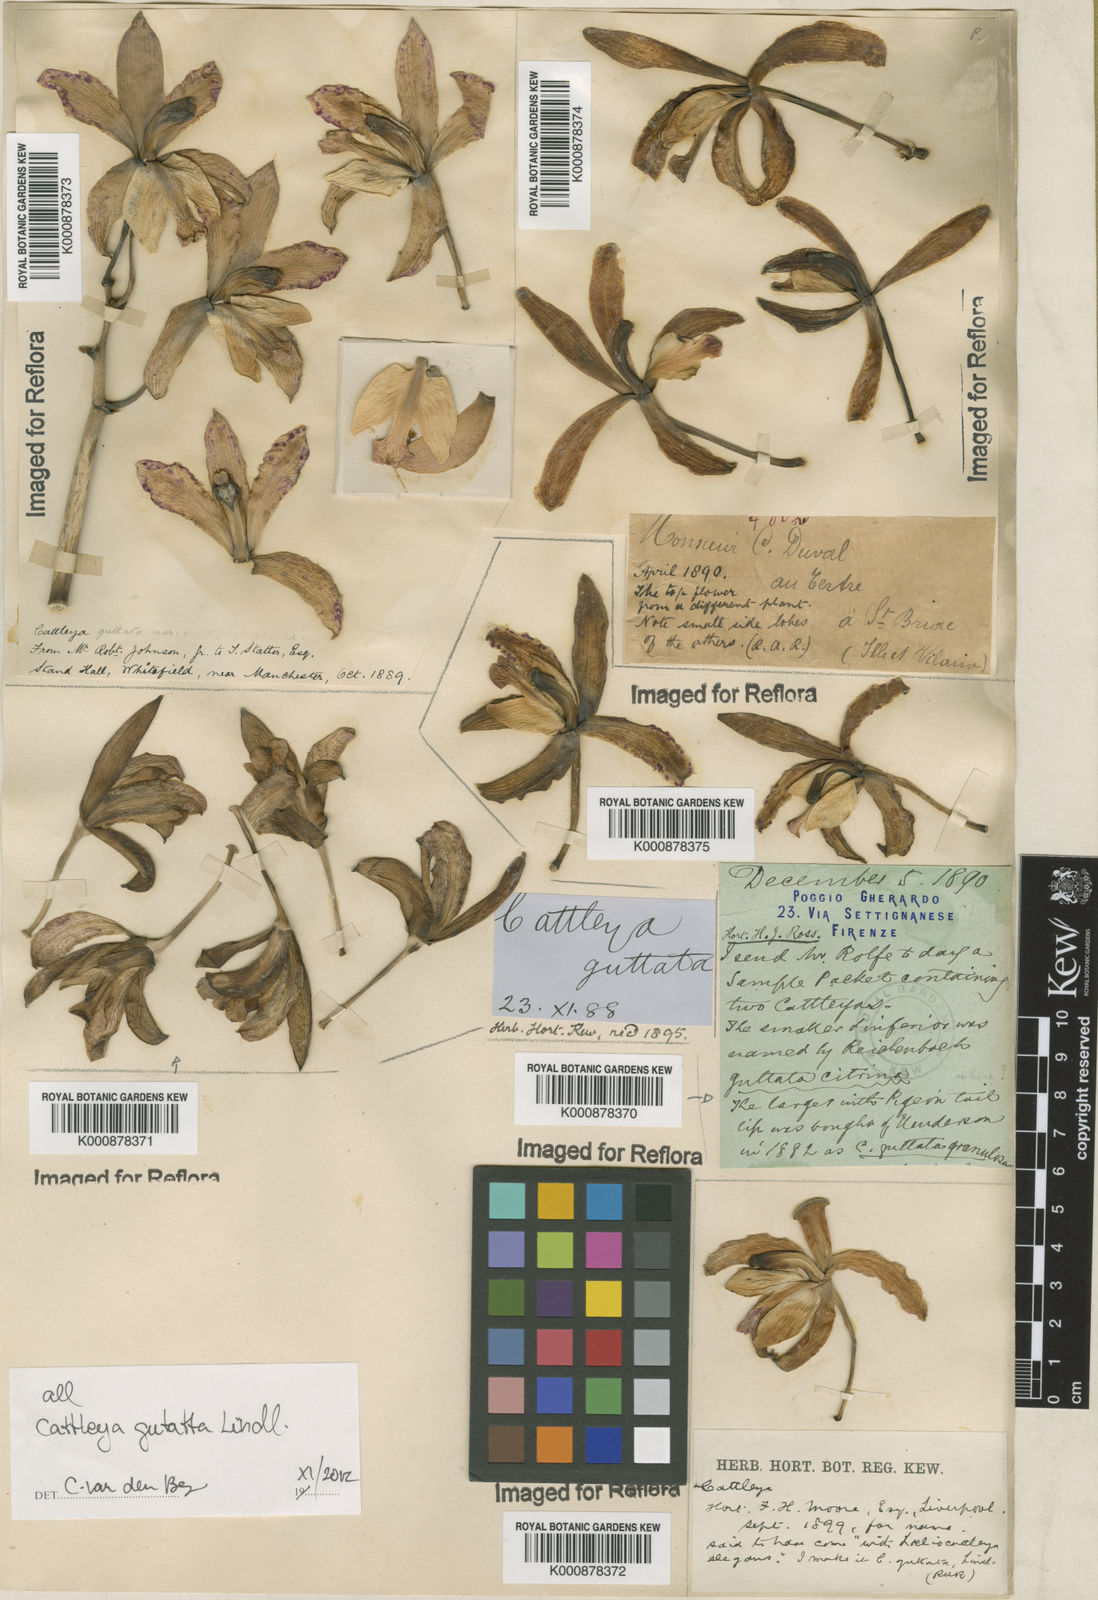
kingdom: Plantae
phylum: Tracheophyta
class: Liliopsida
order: Asparagales
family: Orchidaceae
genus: Cattleya
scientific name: Cattleya guttata
